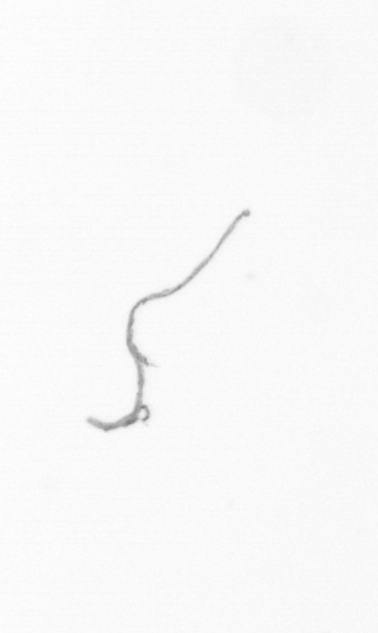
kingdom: Chromista
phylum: Ochrophyta
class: Bacillariophyceae
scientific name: Bacillariophyceae
